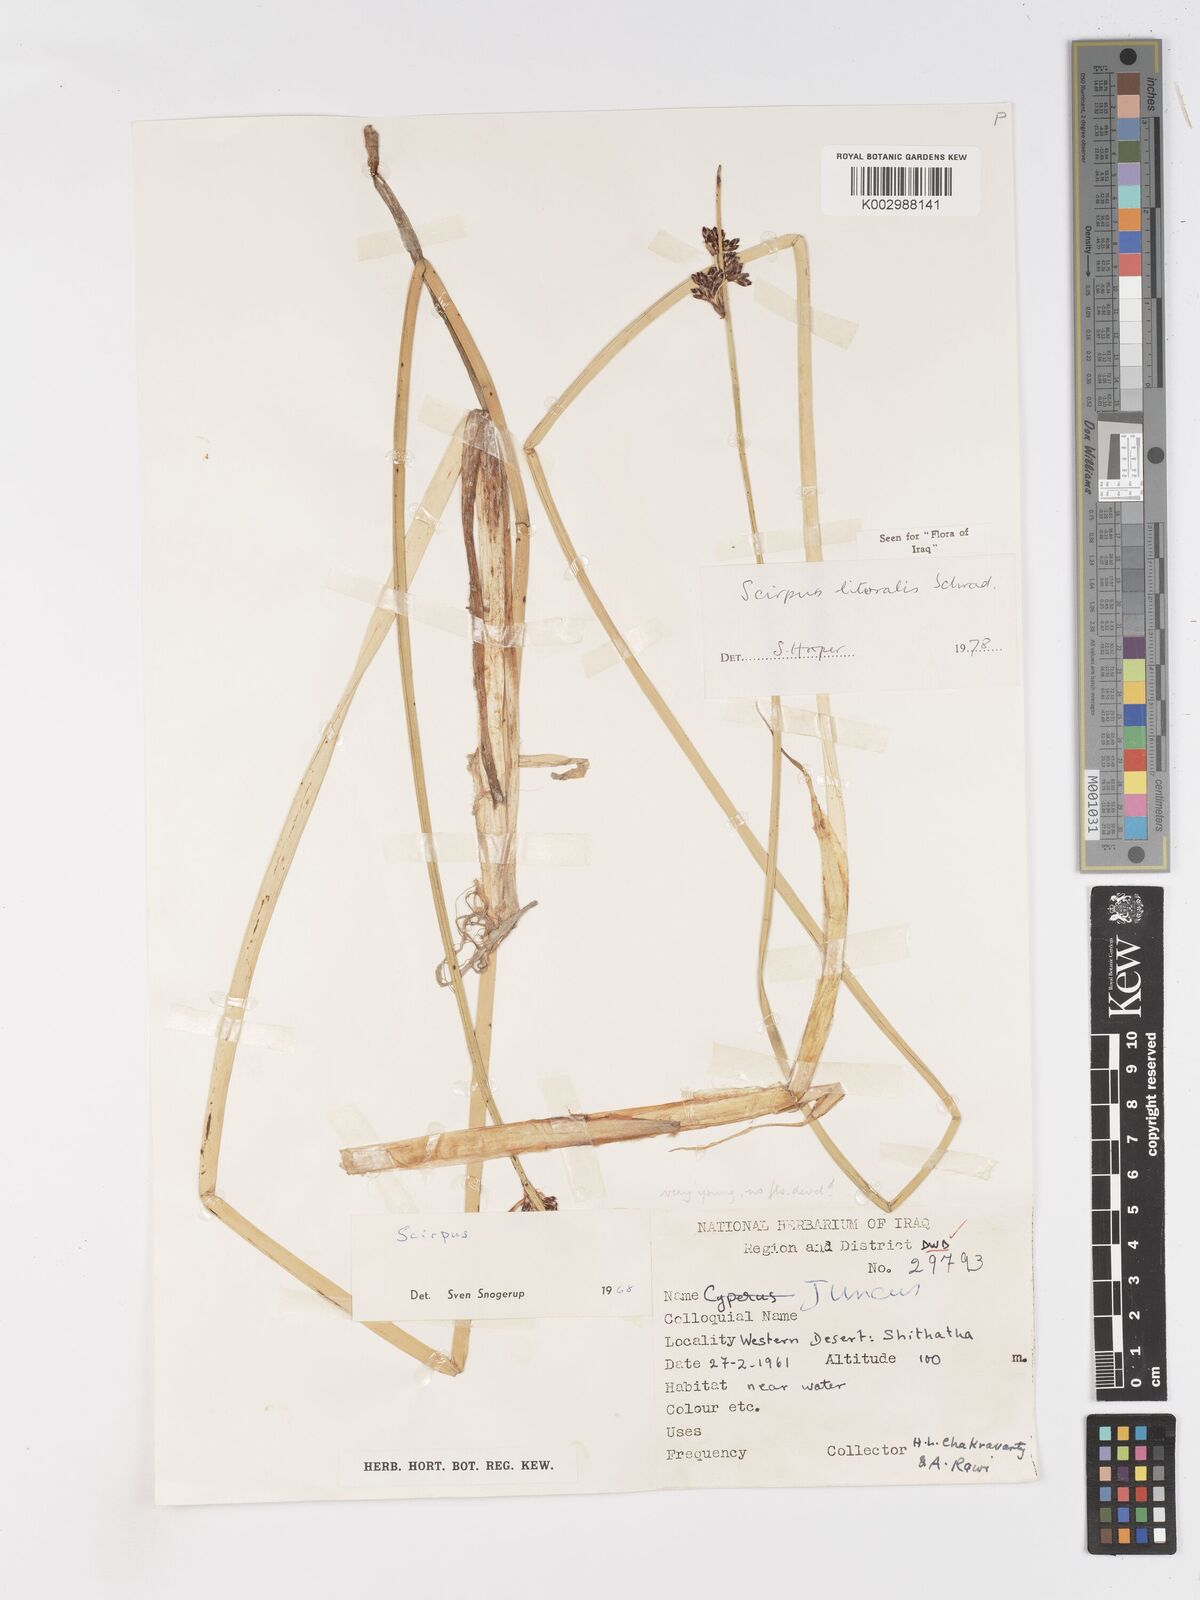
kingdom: Plantae
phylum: Tracheophyta
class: Liliopsida
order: Poales
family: Cyperaceae
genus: Schoenoplectus
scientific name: Schoenoplectus litoralis
